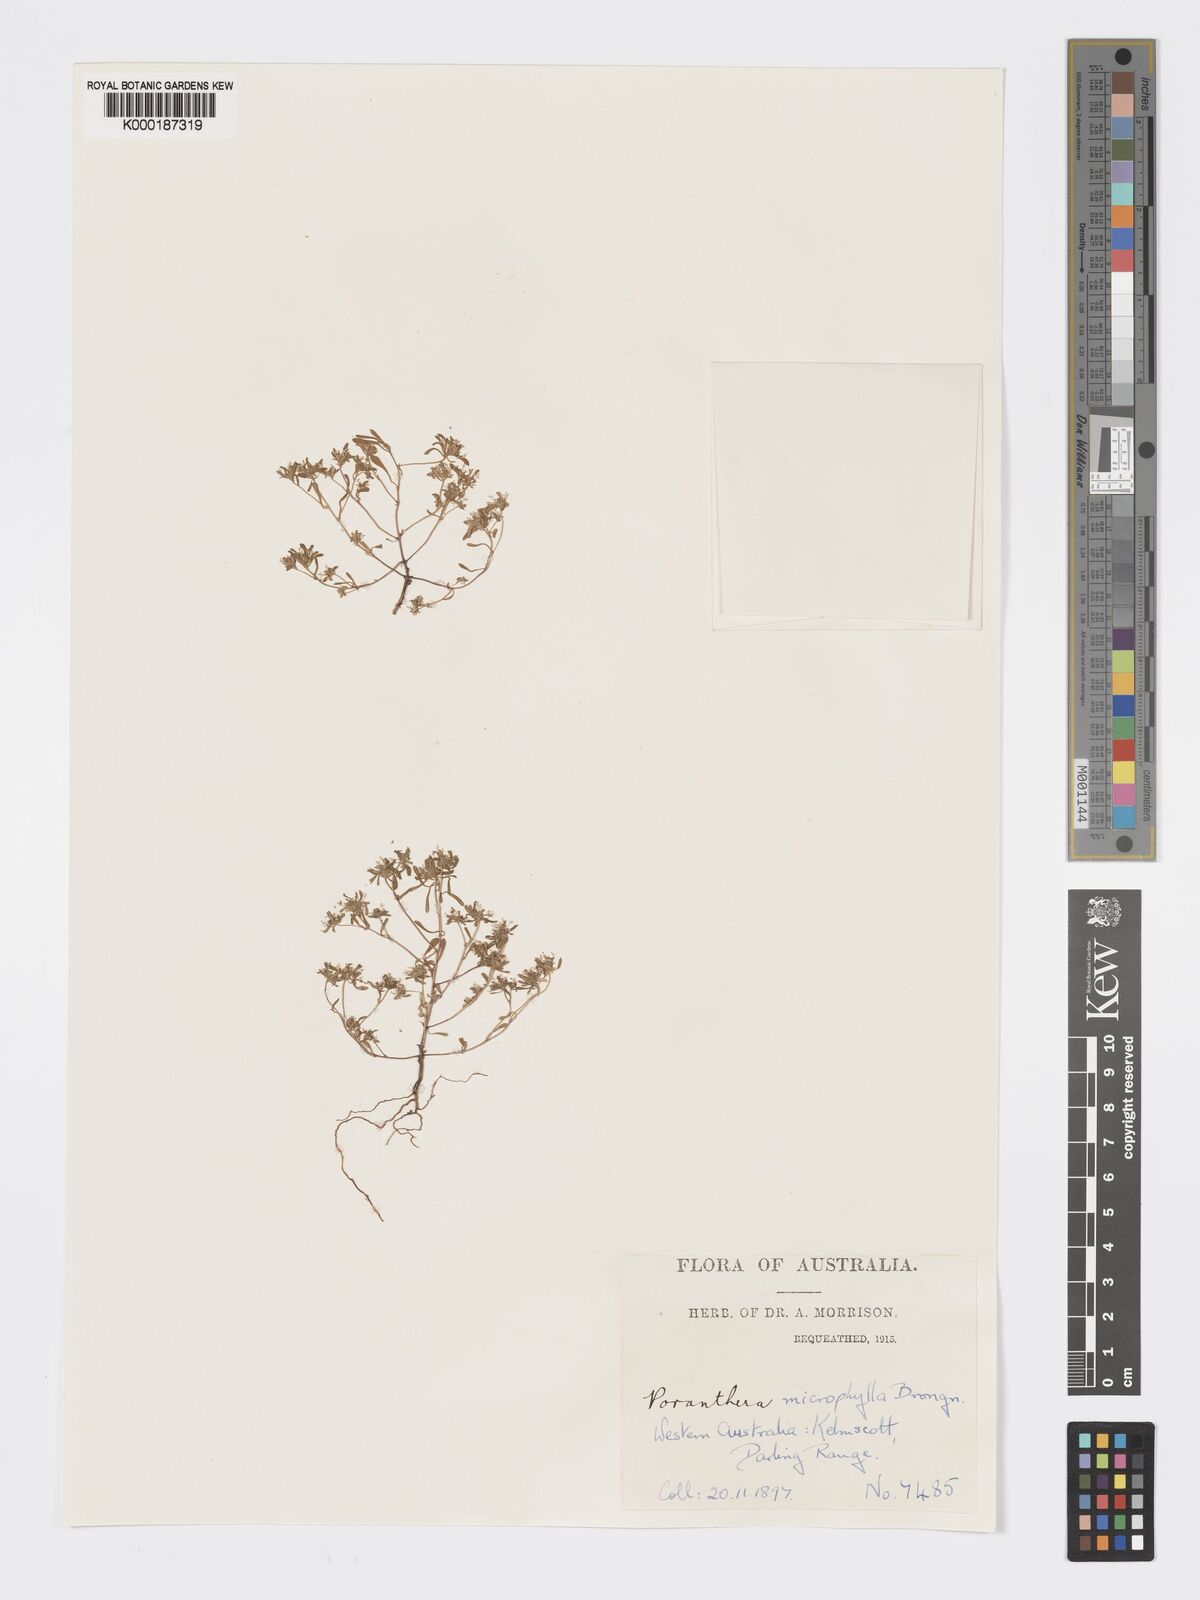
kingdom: Plantae
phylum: Tracheophyta
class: Magnoliopsida
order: Malpighiales
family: Phyllanthaceae
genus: Poranthera
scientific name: Poranthera microphylla
